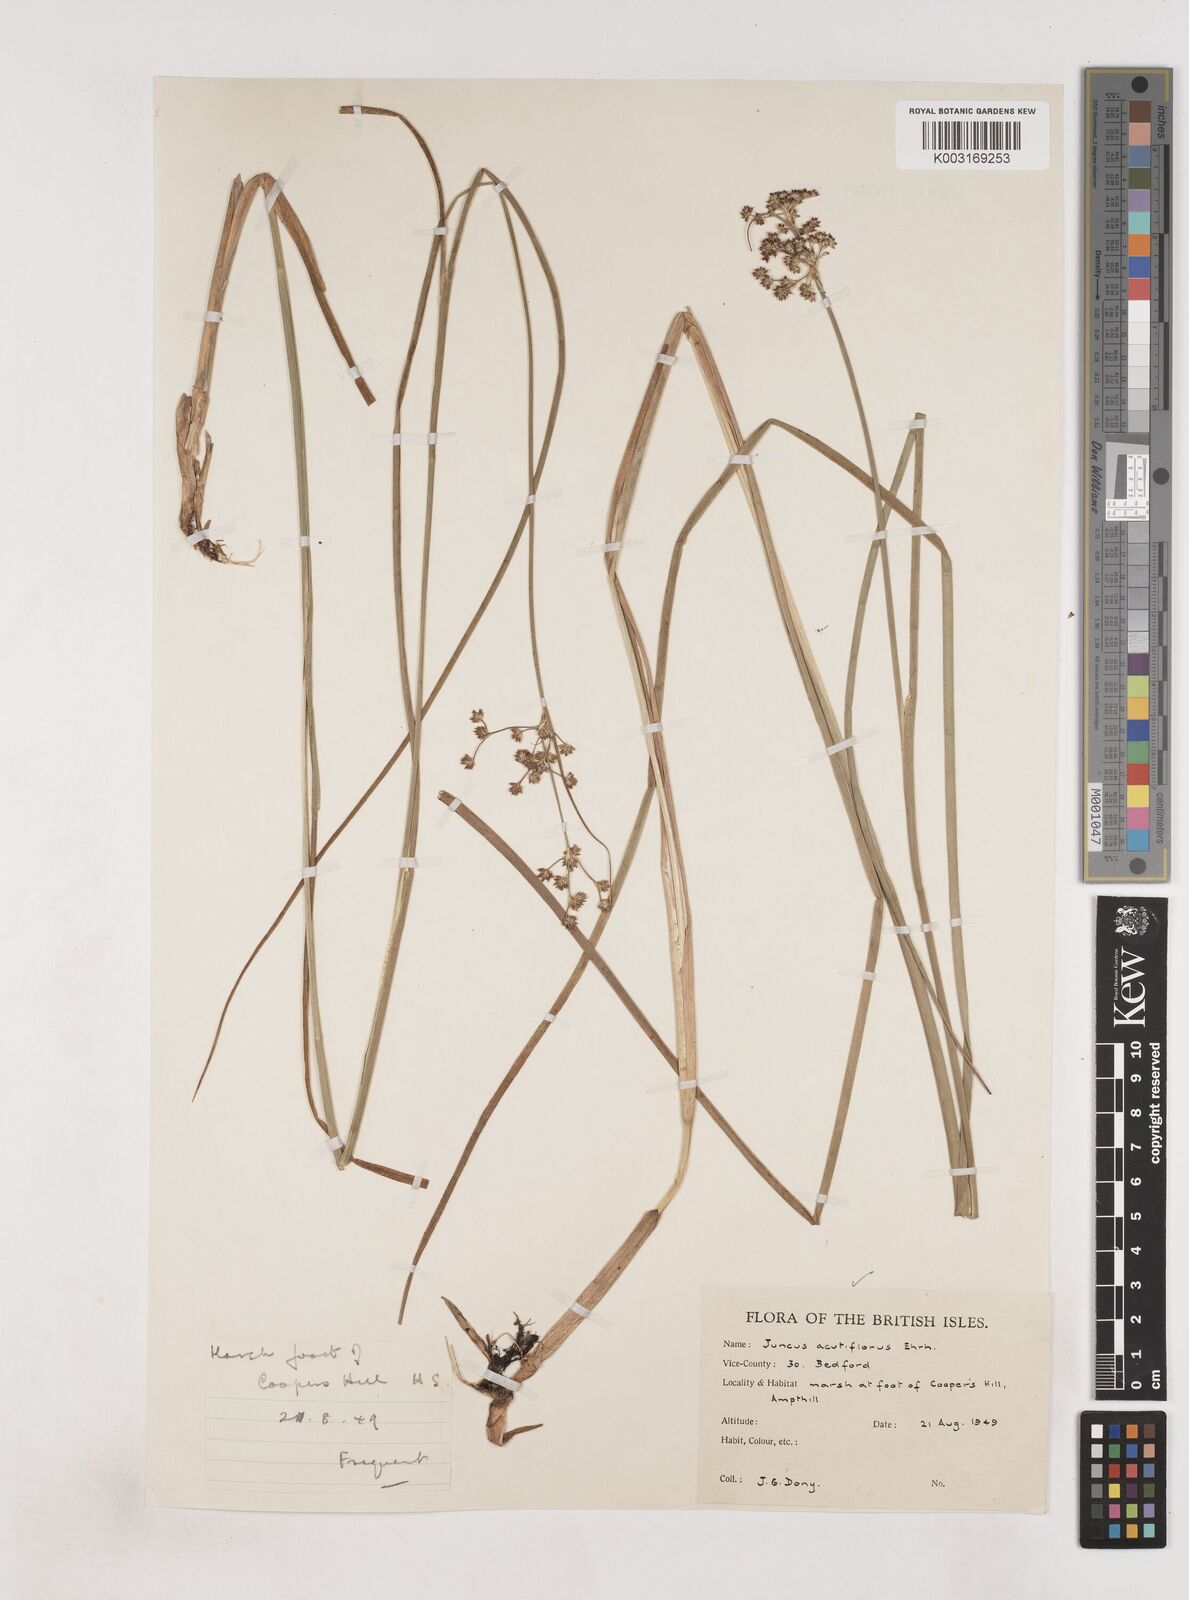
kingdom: Plantae
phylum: Tracheophyta
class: Liliopsida
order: Poales
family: Juncaceae
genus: Juncus
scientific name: Juncus acutiflorus
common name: Sharp-flowered rush
